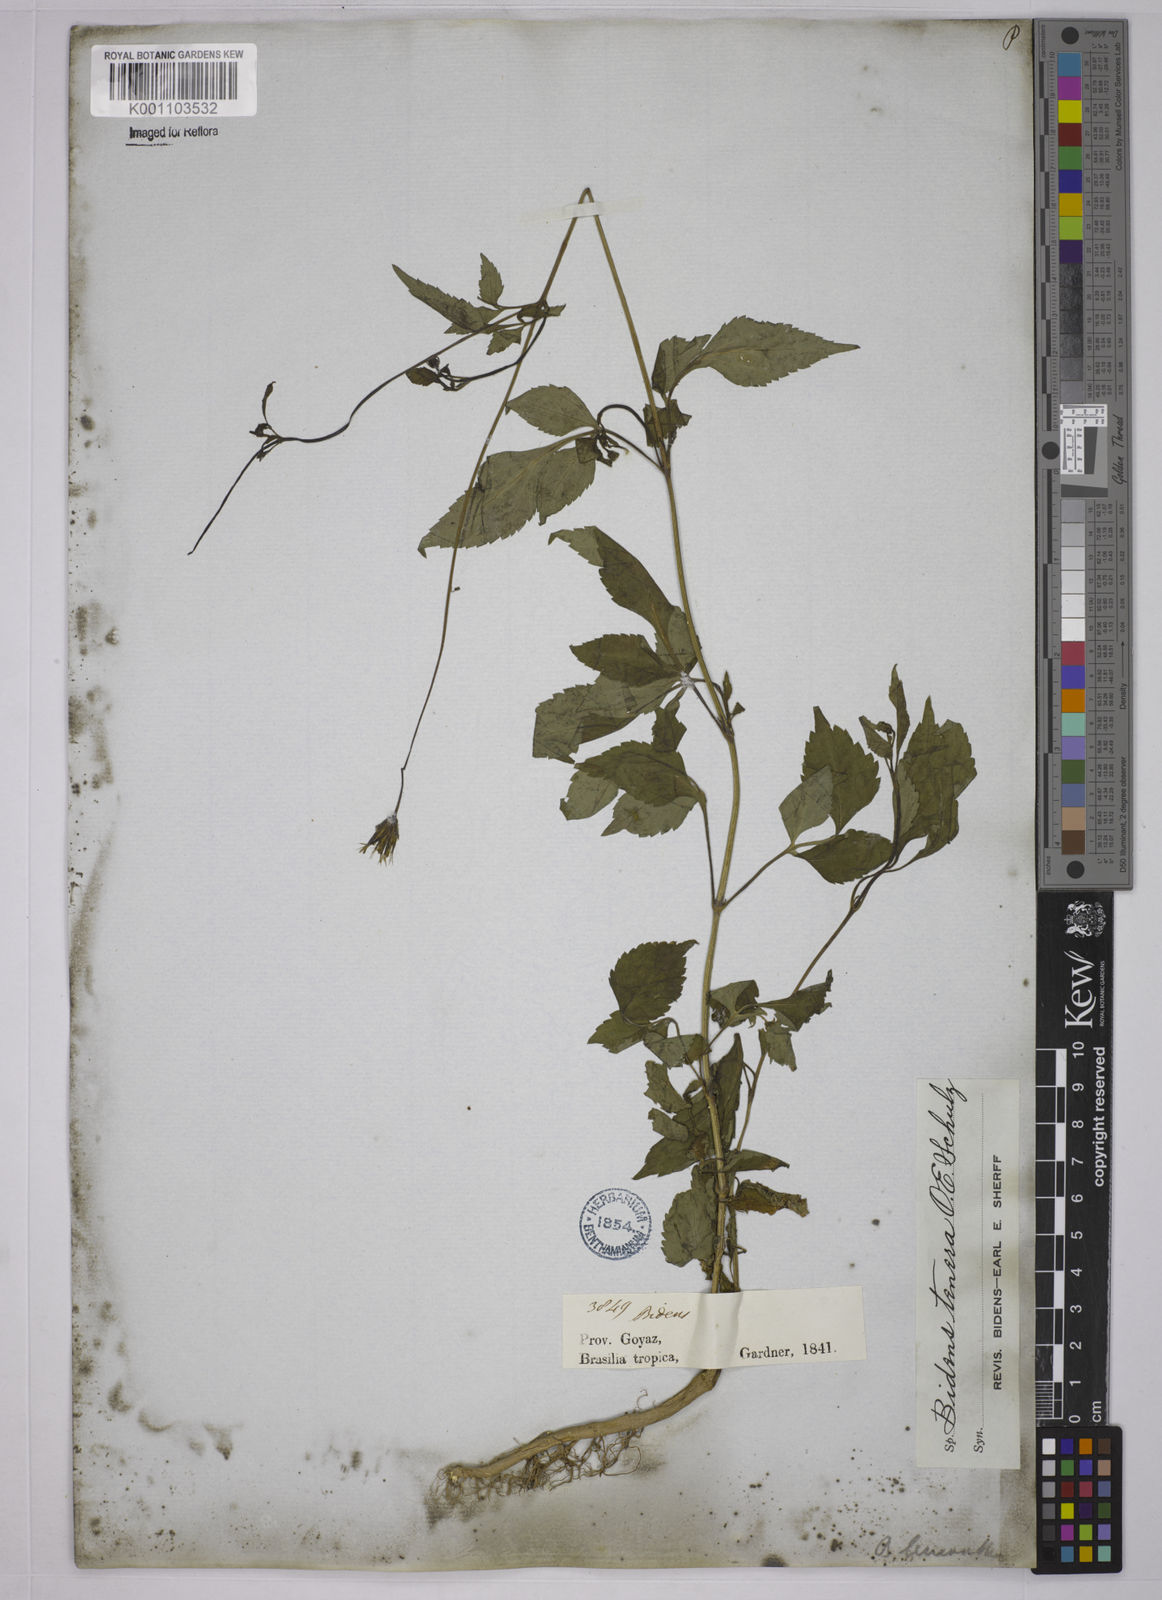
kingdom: Plantae
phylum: Tracheophyta
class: Magnoliopsida
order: Asterales
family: Asteraceae
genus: Bidens
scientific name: Bidens tenera
